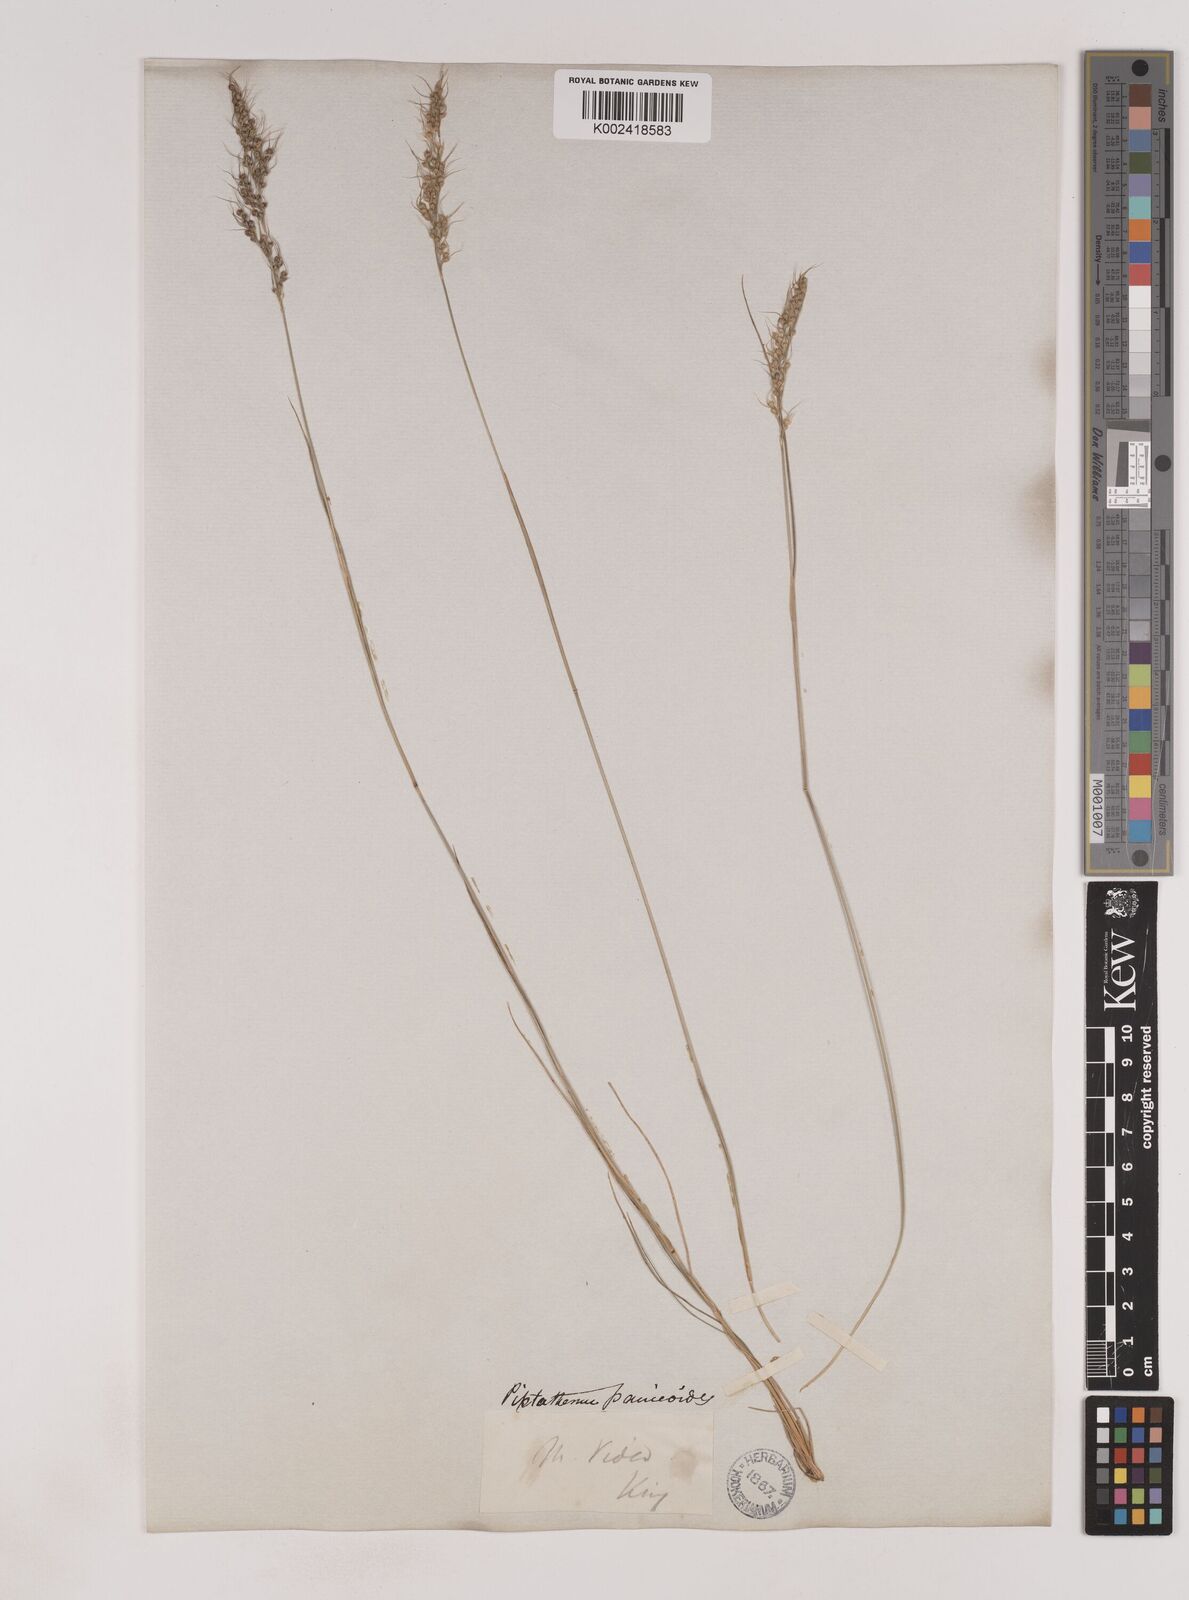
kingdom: Plantae
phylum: Tracheophyta
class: Liliopsida
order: Poales
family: Poaceae
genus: Piptochaetium
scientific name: Piptochaetium montevidense
